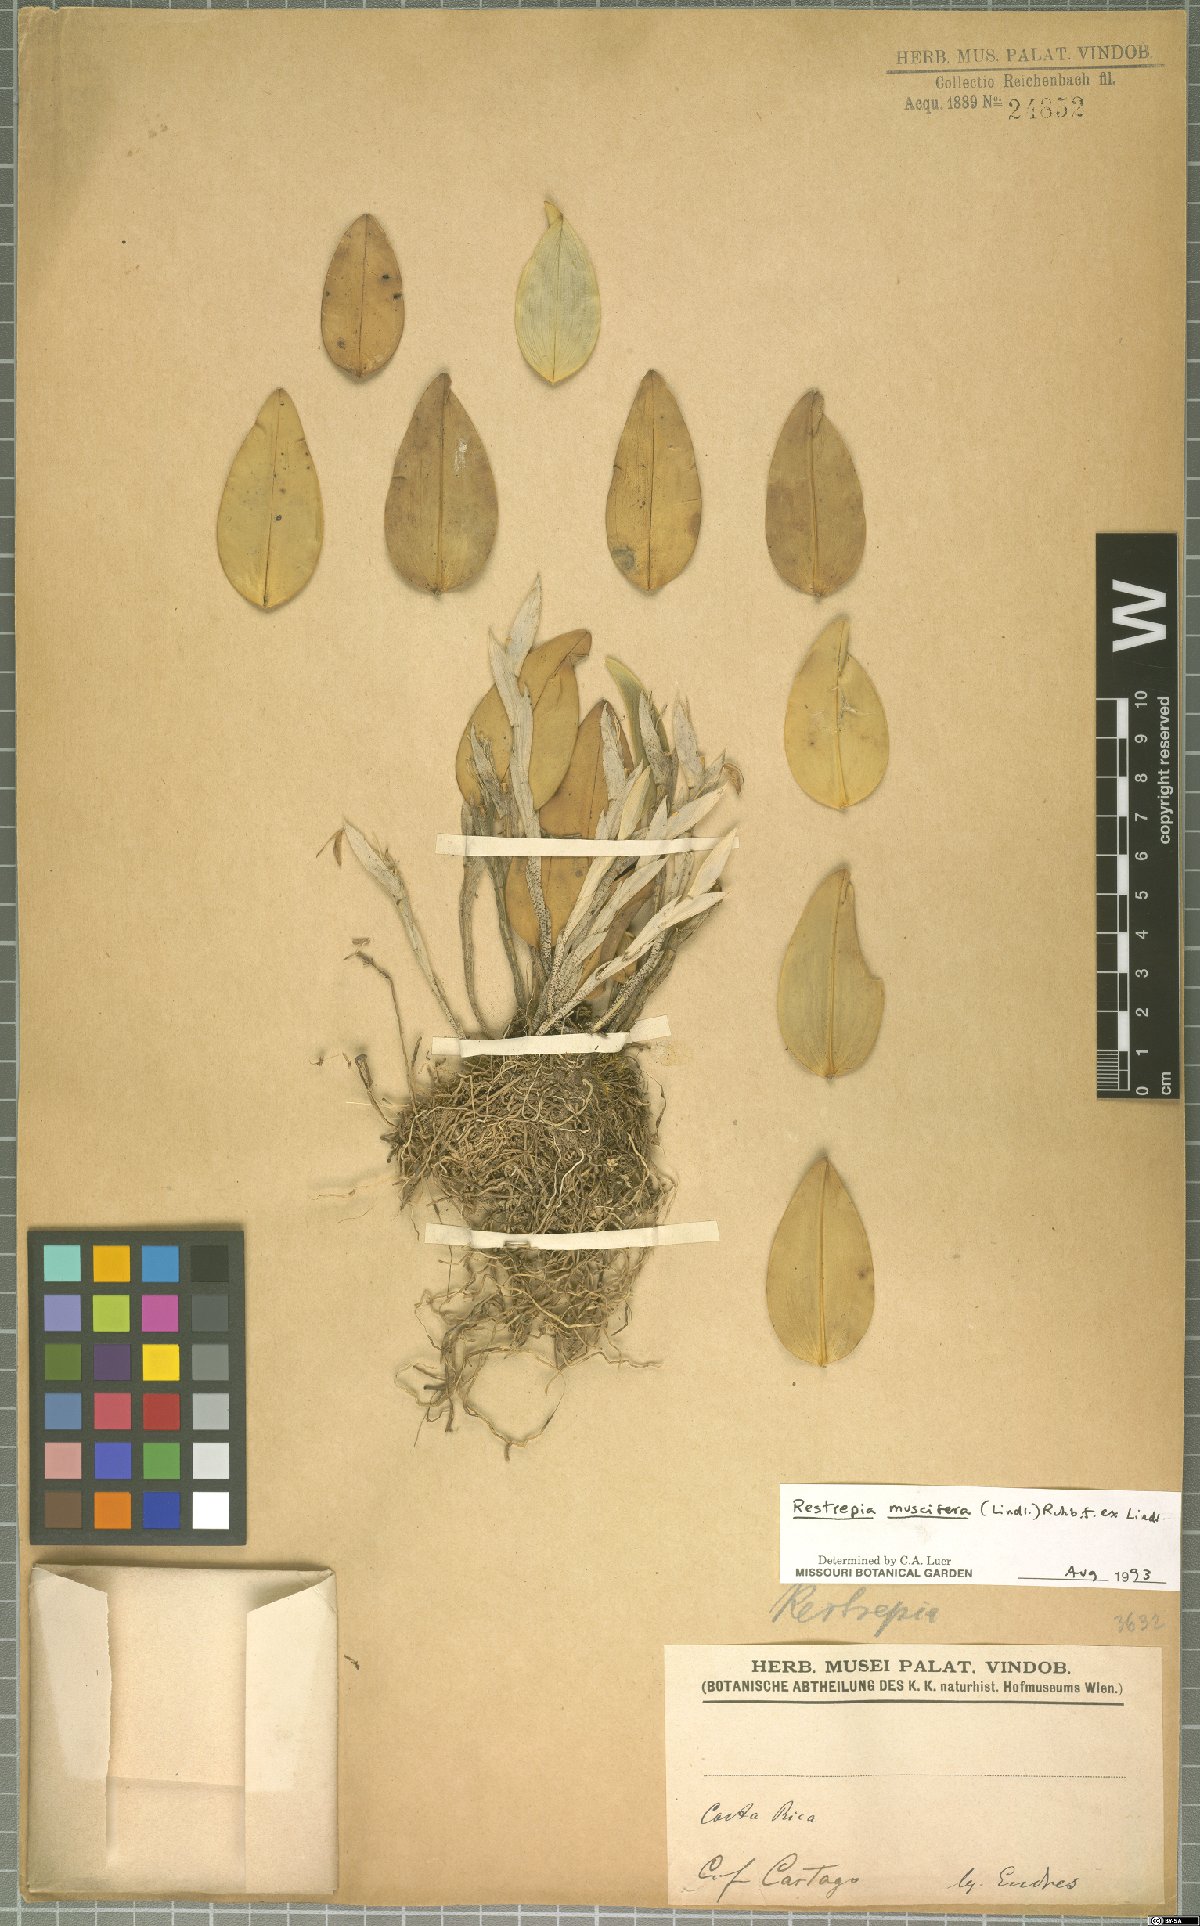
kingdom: Plantae
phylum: Tracheophyta
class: Liliopsida
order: Asparagales
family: Orchidaceae
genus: Restrepia
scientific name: Restrepia muscifera
